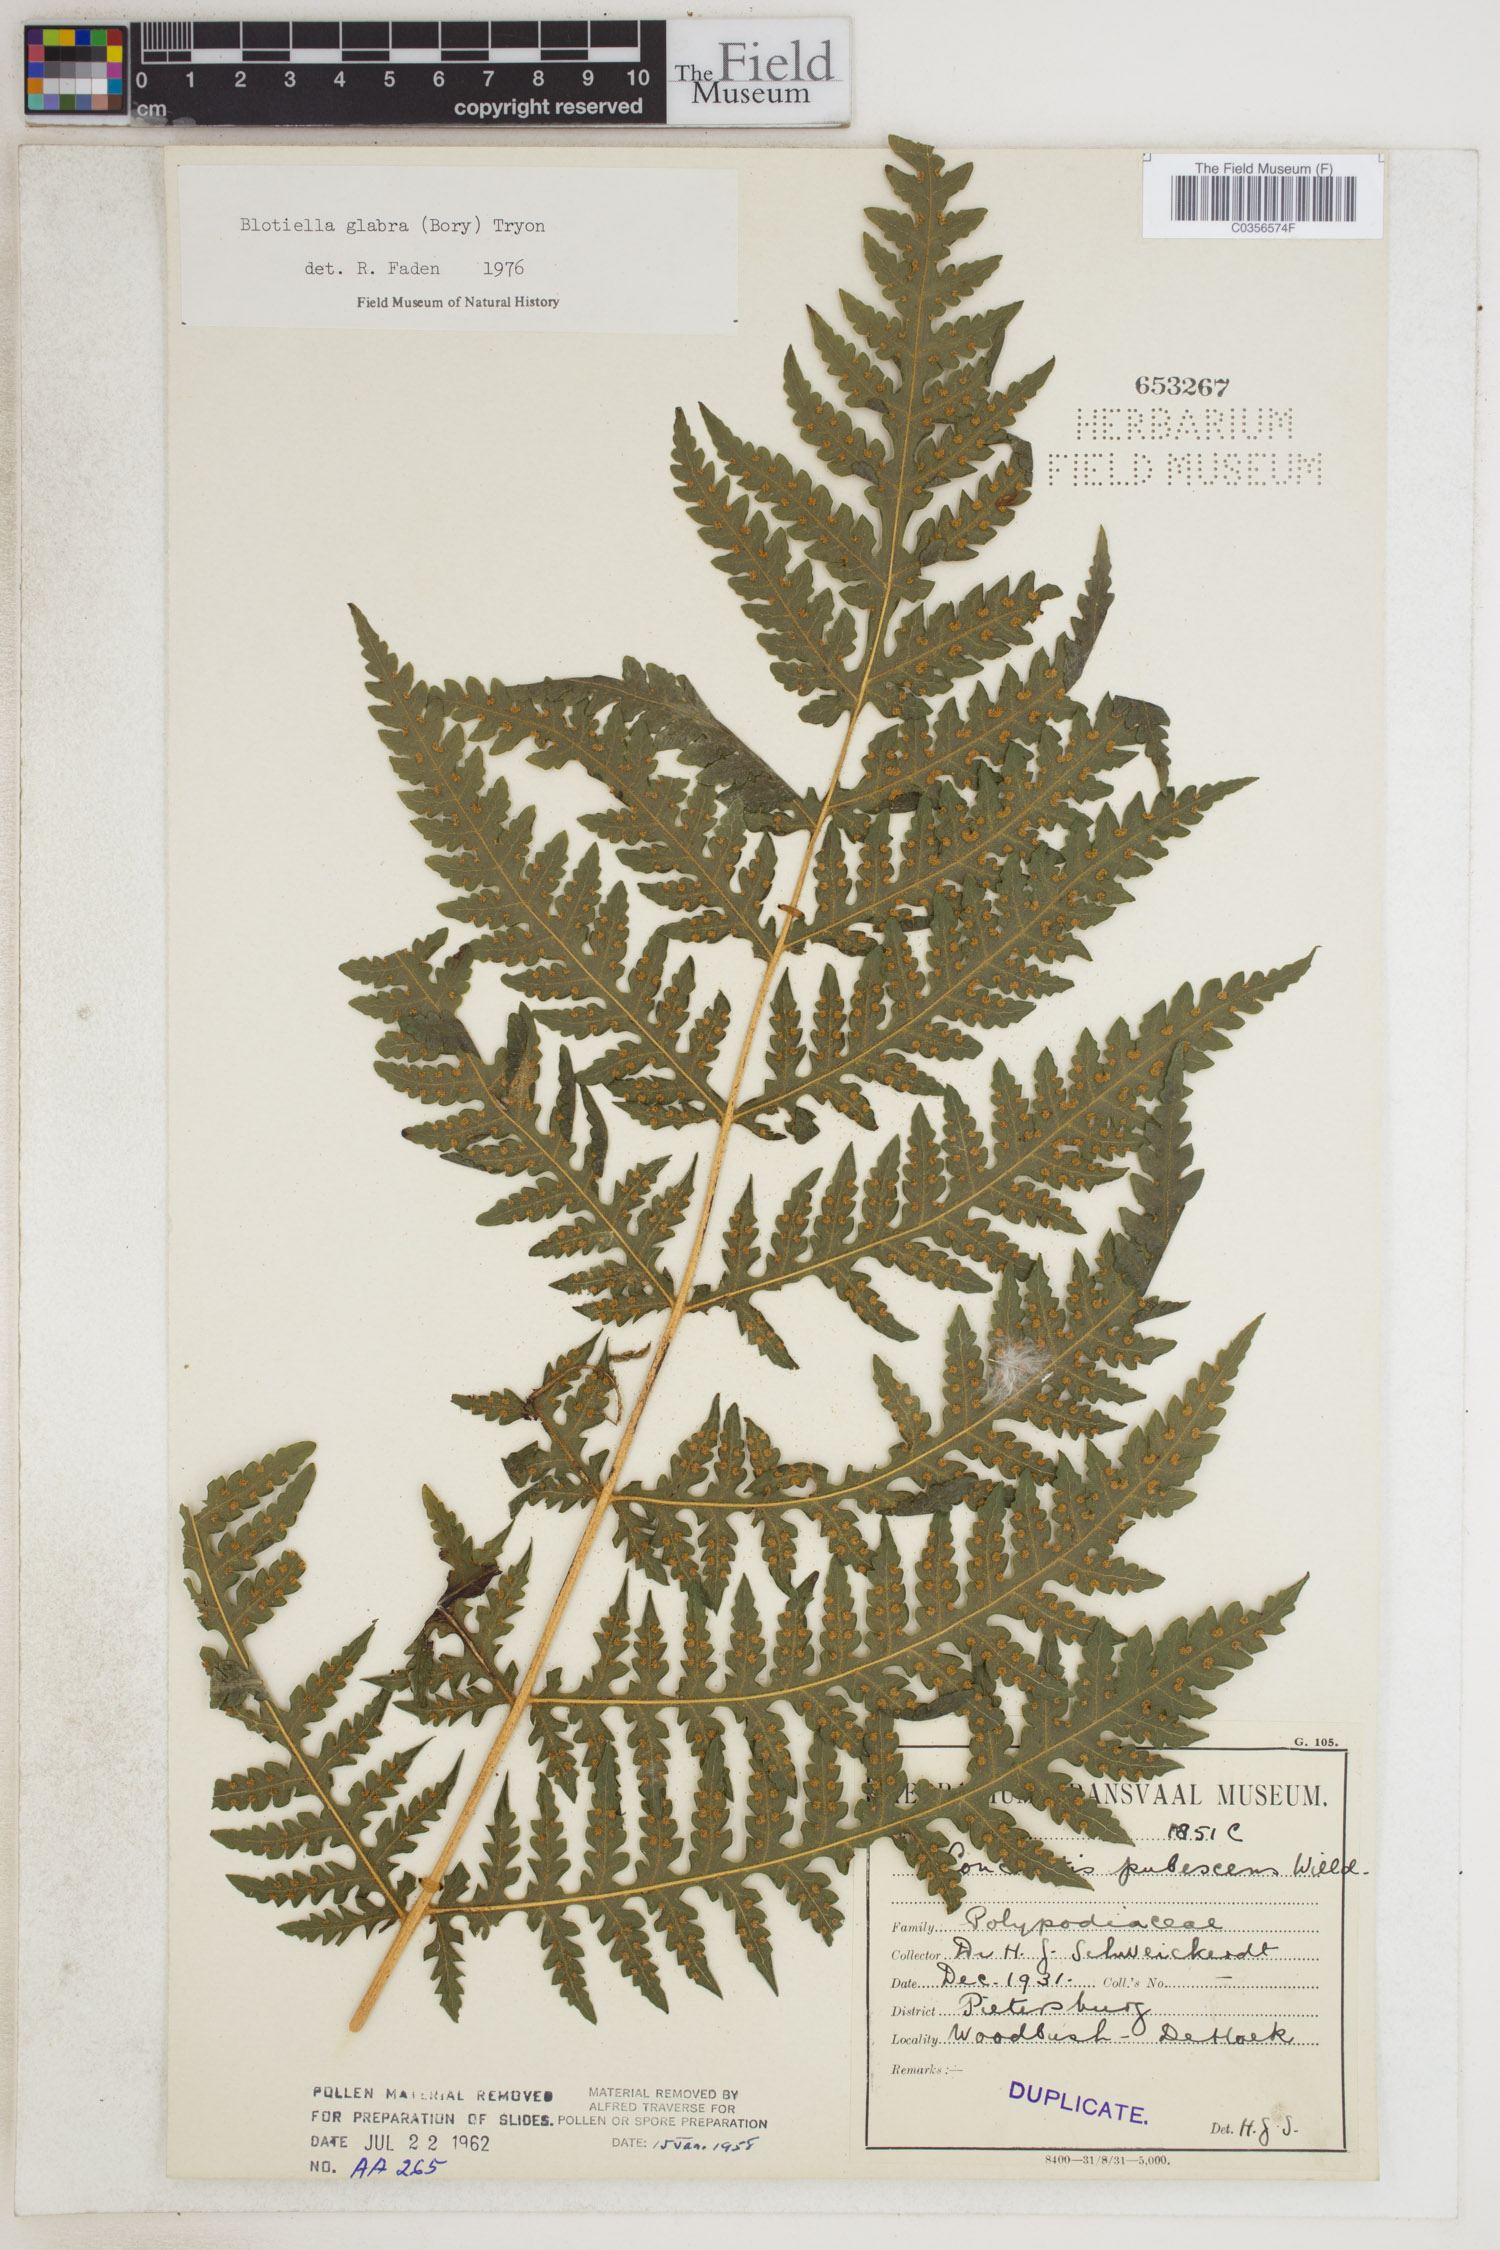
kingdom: Plantae
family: Pteridophyta
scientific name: Pteridophyta
